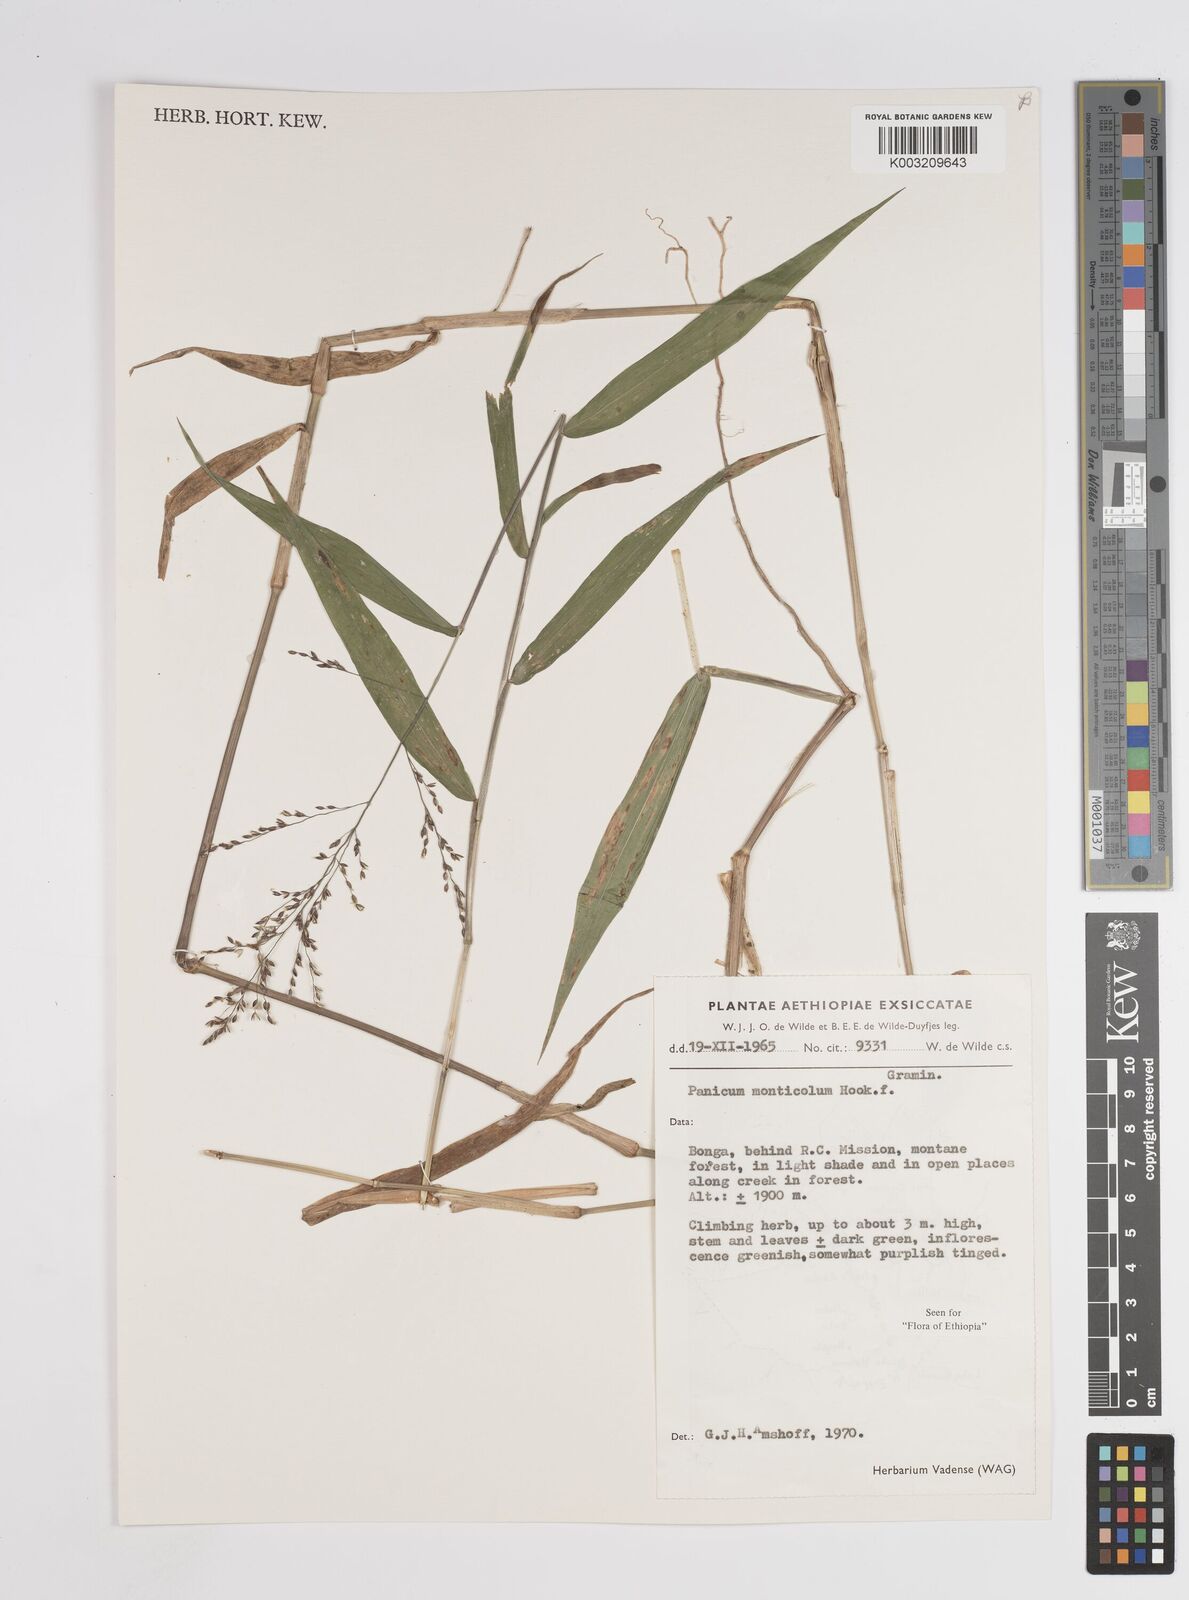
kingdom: Plantae
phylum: Tracheophyta
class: Liliopsida
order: Poales
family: Poaceae
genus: Panicum
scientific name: Panicum monticola
